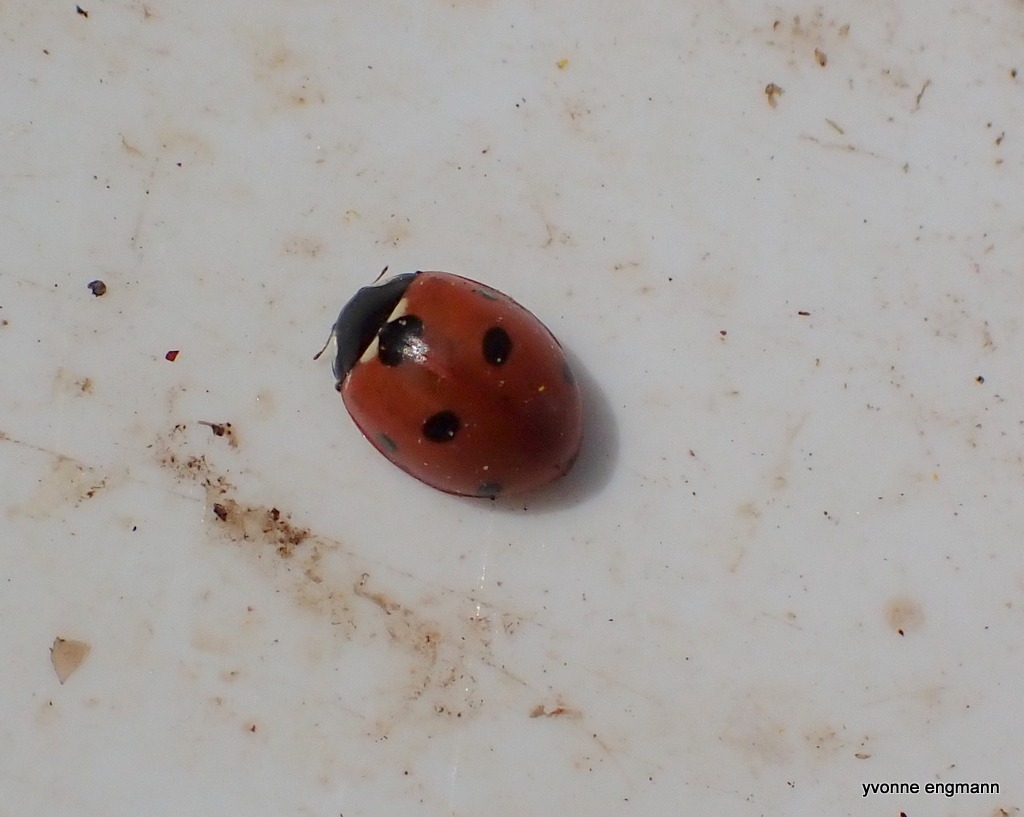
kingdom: Animalia
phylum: Arthropoda
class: Insecta
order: Coleoptera
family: Coccinellidae
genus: Coccinella
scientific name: Coccinella septempunctata
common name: Syvplettet mariehøne
